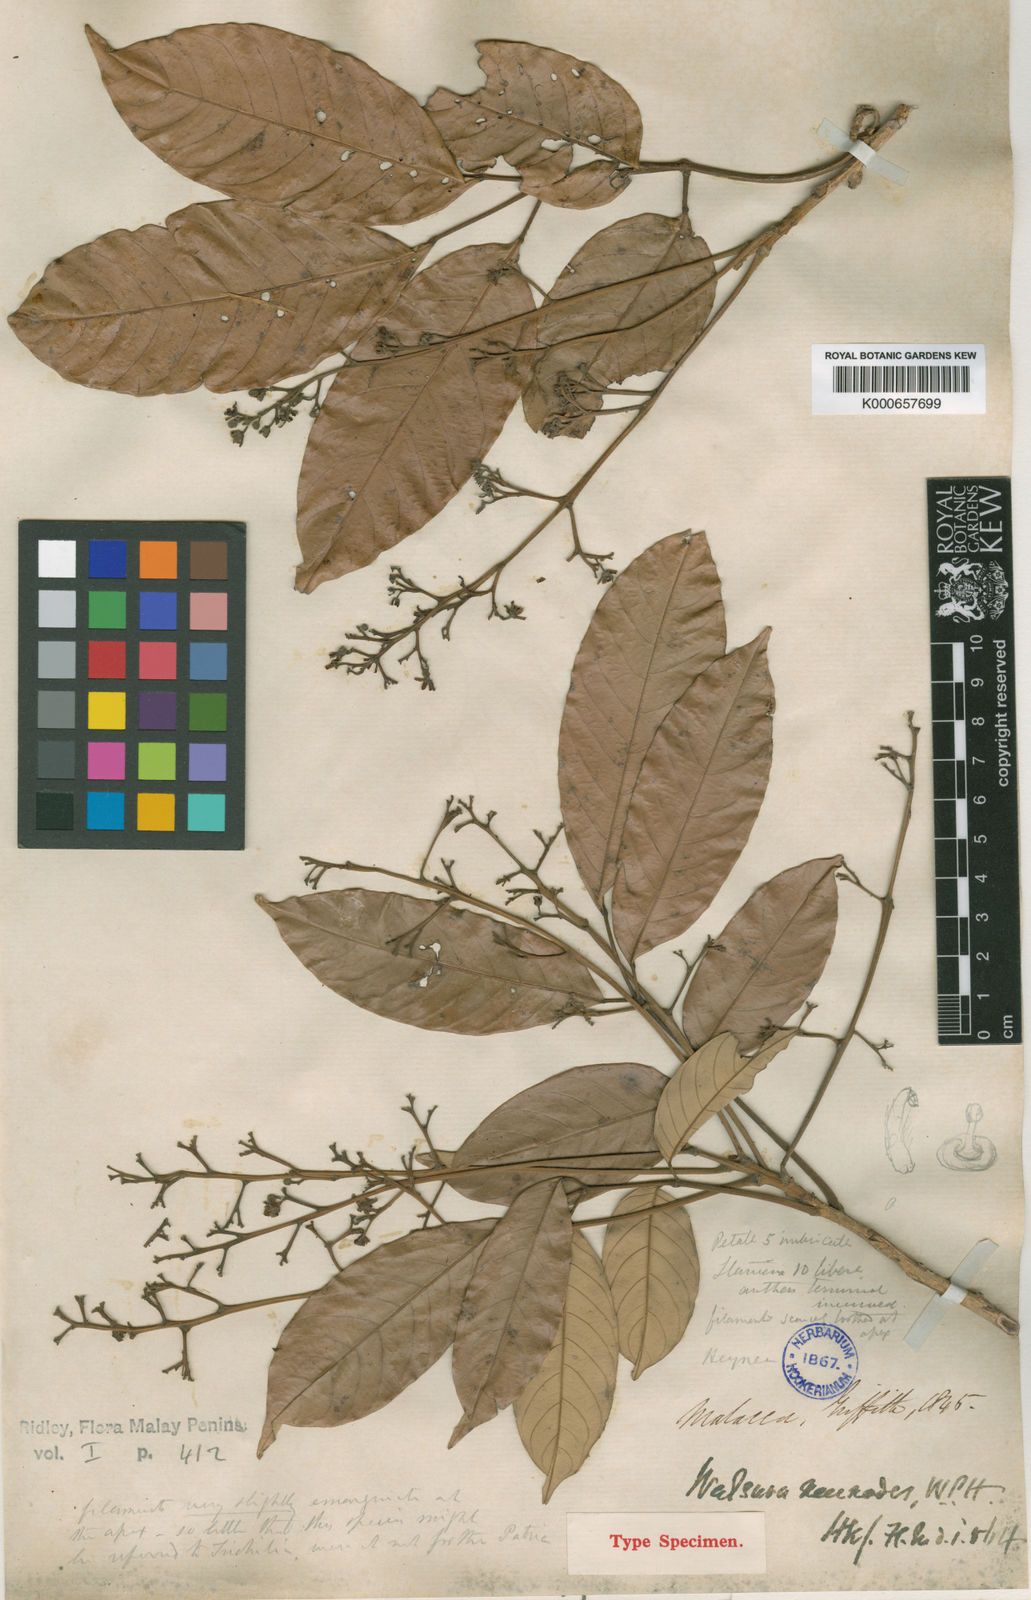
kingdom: Plantae
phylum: Tracheophyta
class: Magnoliopsida
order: Sapindales
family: Meliaceae
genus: Walsura
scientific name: Walsura pinnata
